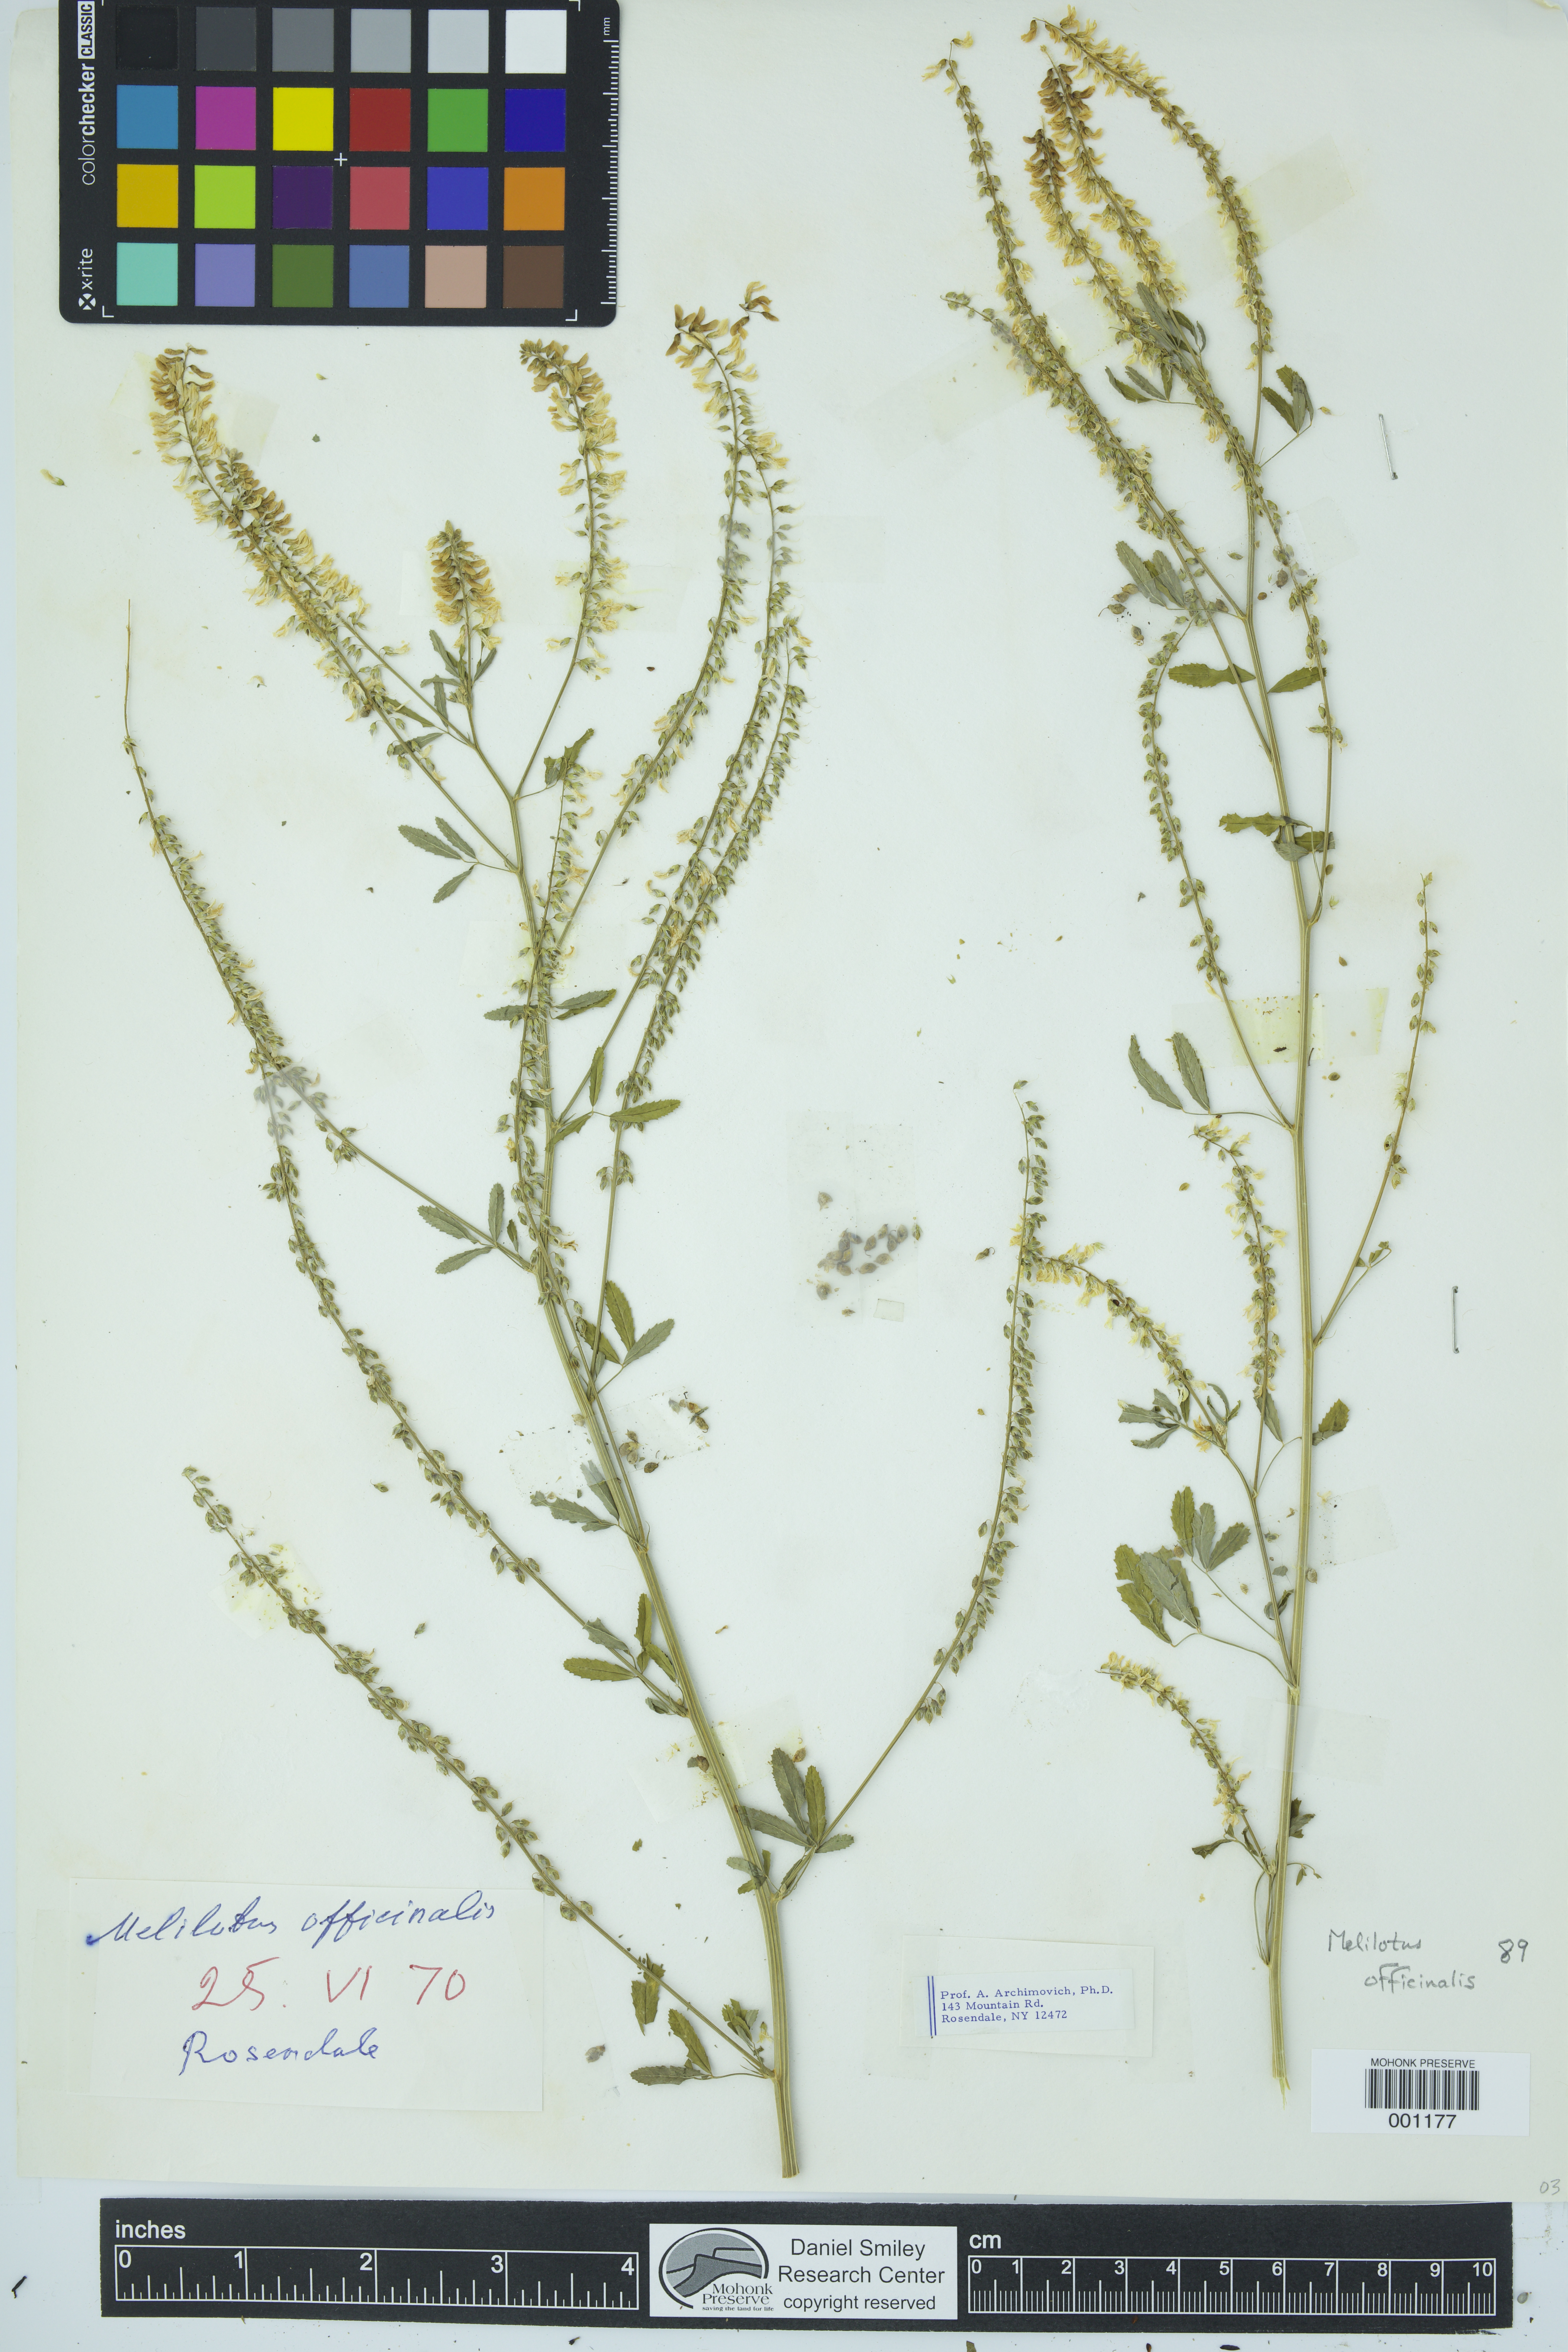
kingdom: Plantae
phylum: Tracheophyta
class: Magnoliopsida
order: Fabales
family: Fabaceae
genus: Melilotus
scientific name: Melilotus officinalis
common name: Sweetclover
